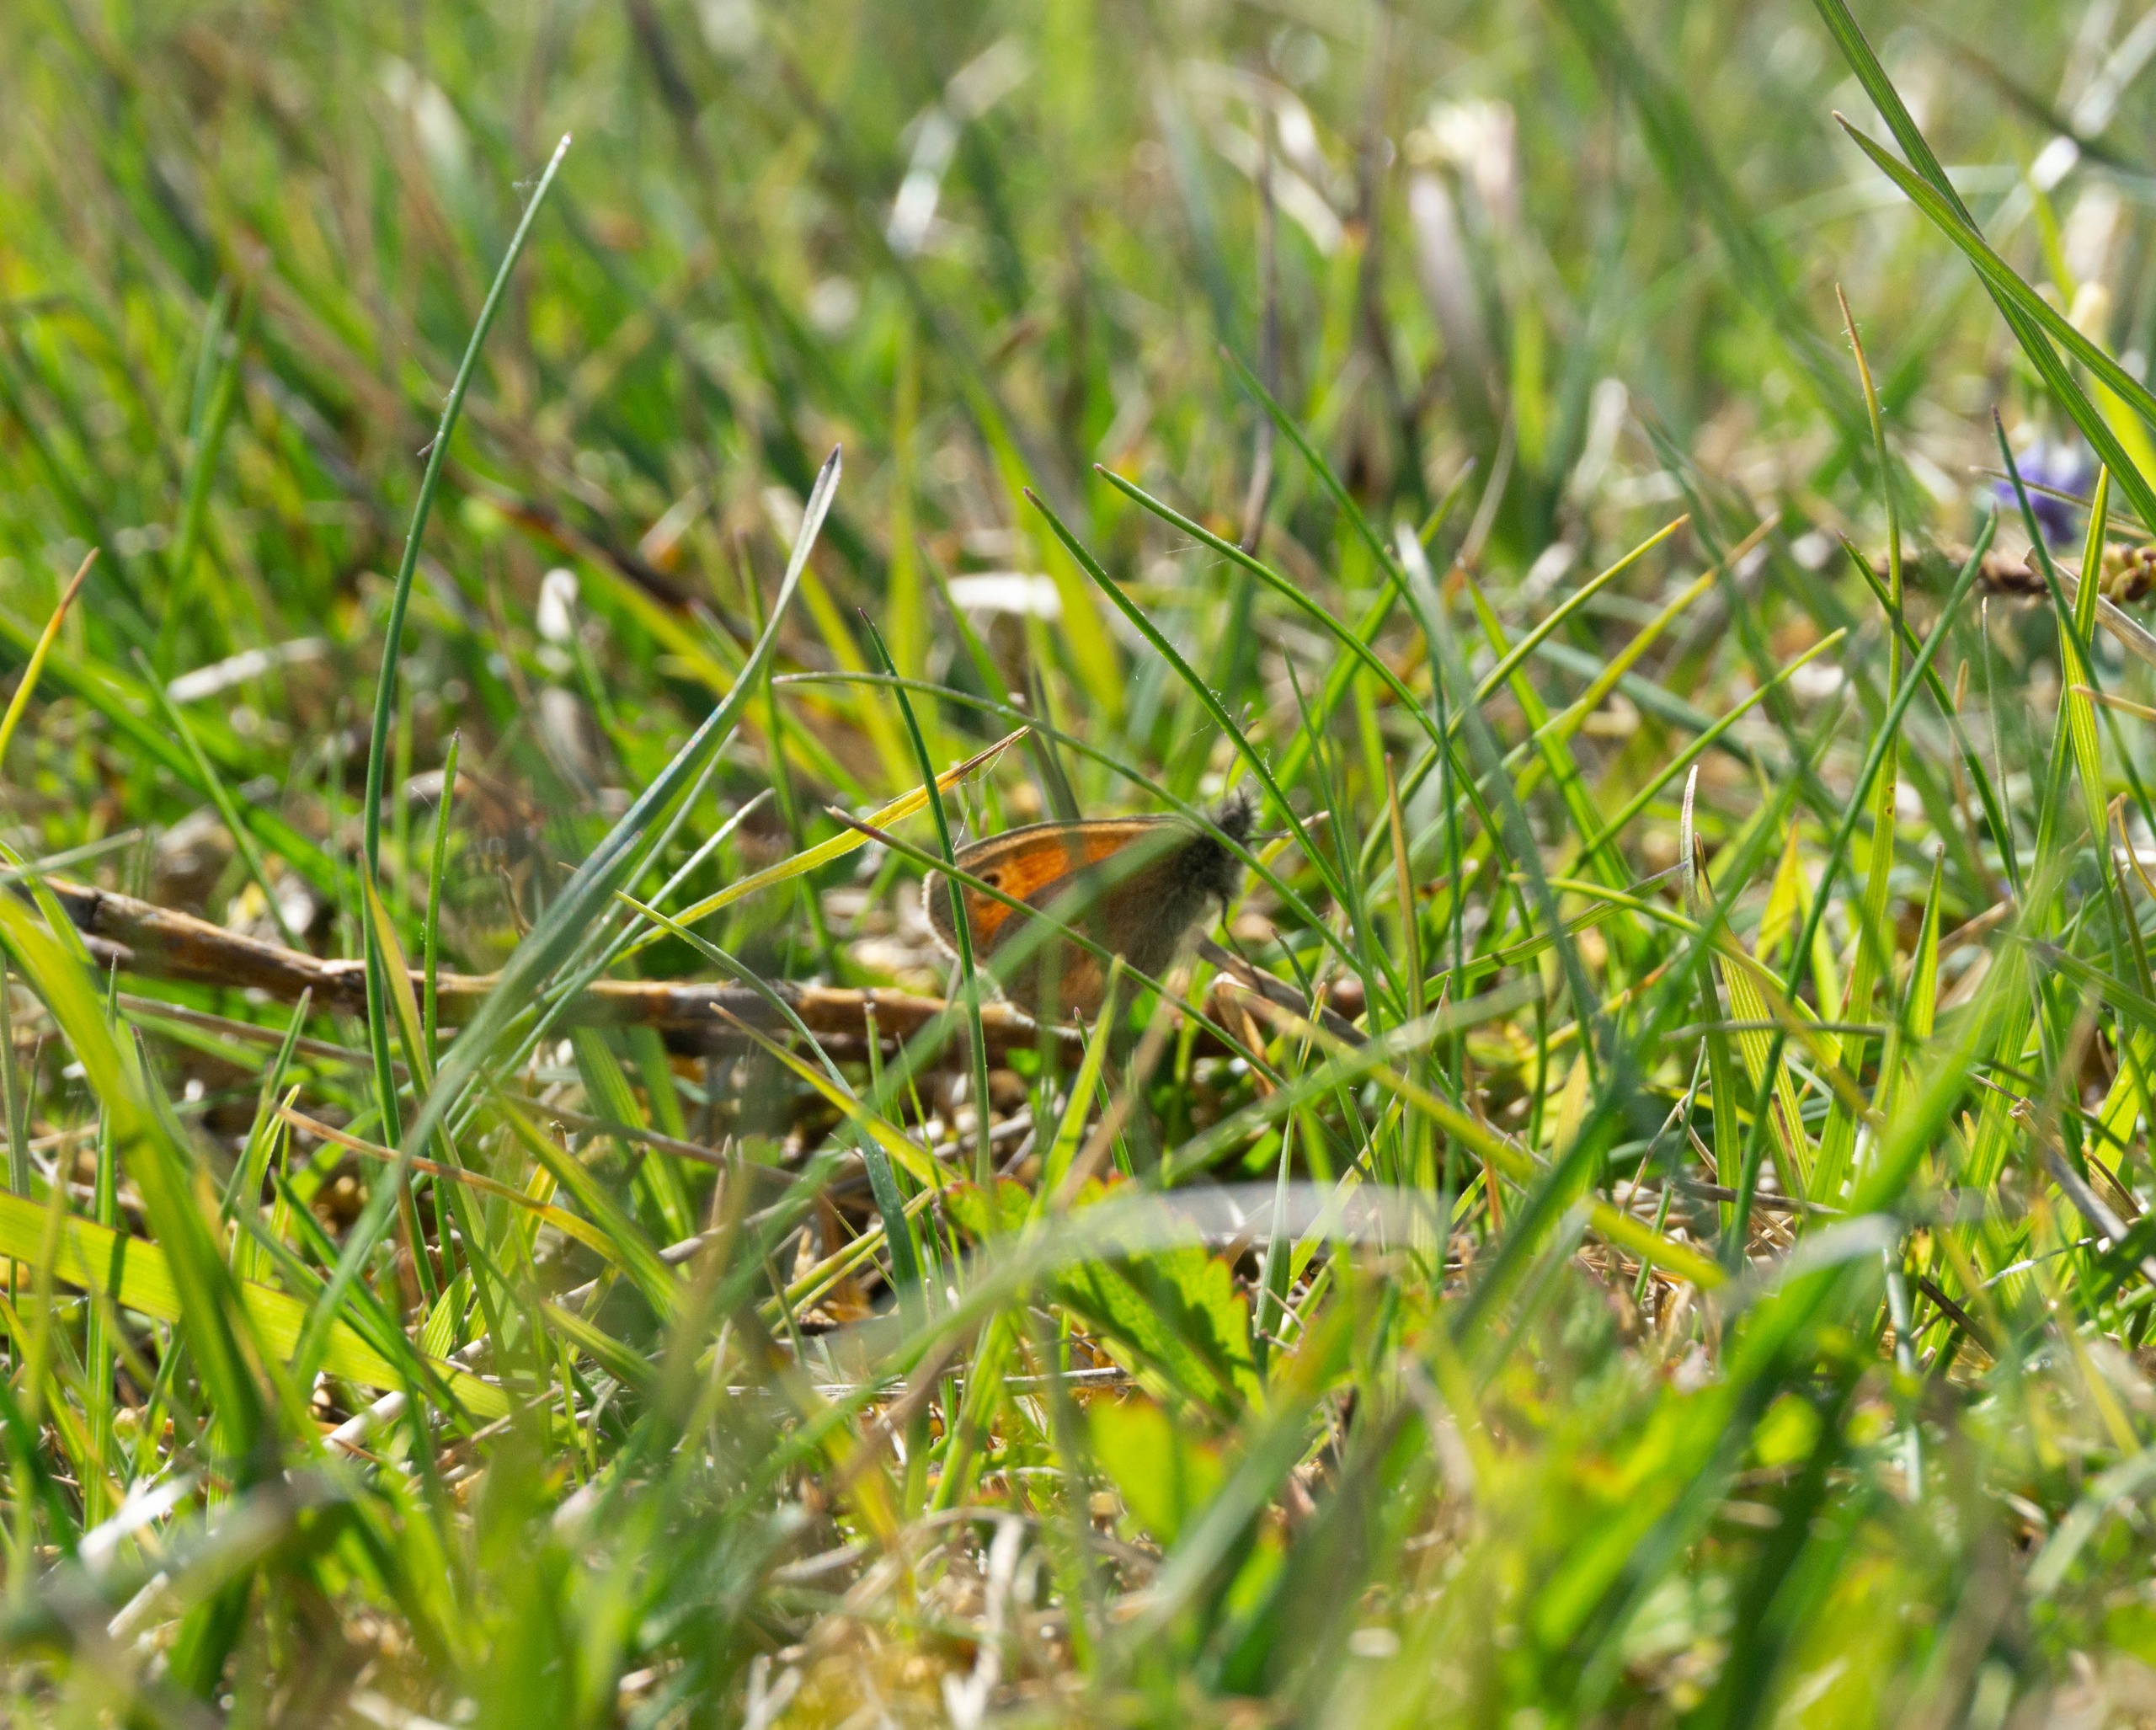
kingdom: Animalia
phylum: Arthropoda
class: Insecta
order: Lepidoptera
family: Nymphalidae
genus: Coenonympha
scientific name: Coenonympha pamphilus
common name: Okkergul randøje
